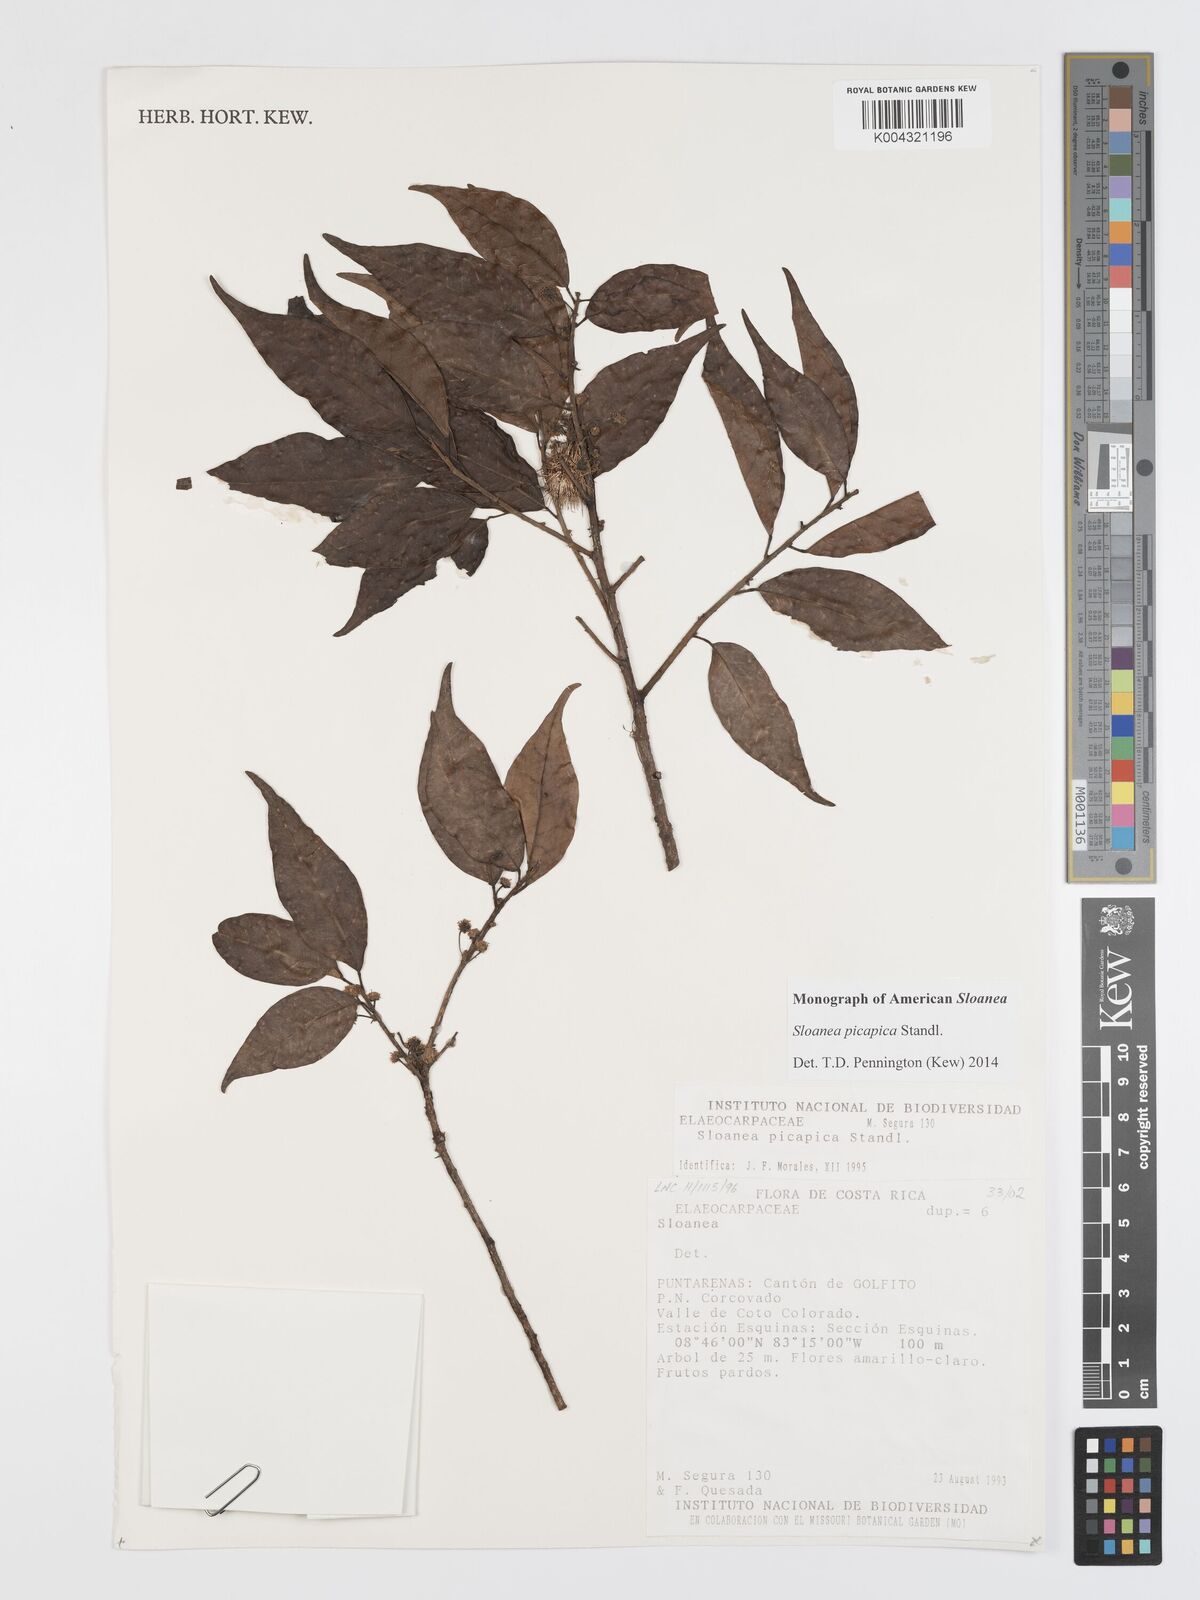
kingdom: Plantae
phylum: Tracheophyta
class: Magnoliopsida
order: Oxalidales
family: Elaeocarpaceae
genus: Sloanea
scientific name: Sloanea picapica
